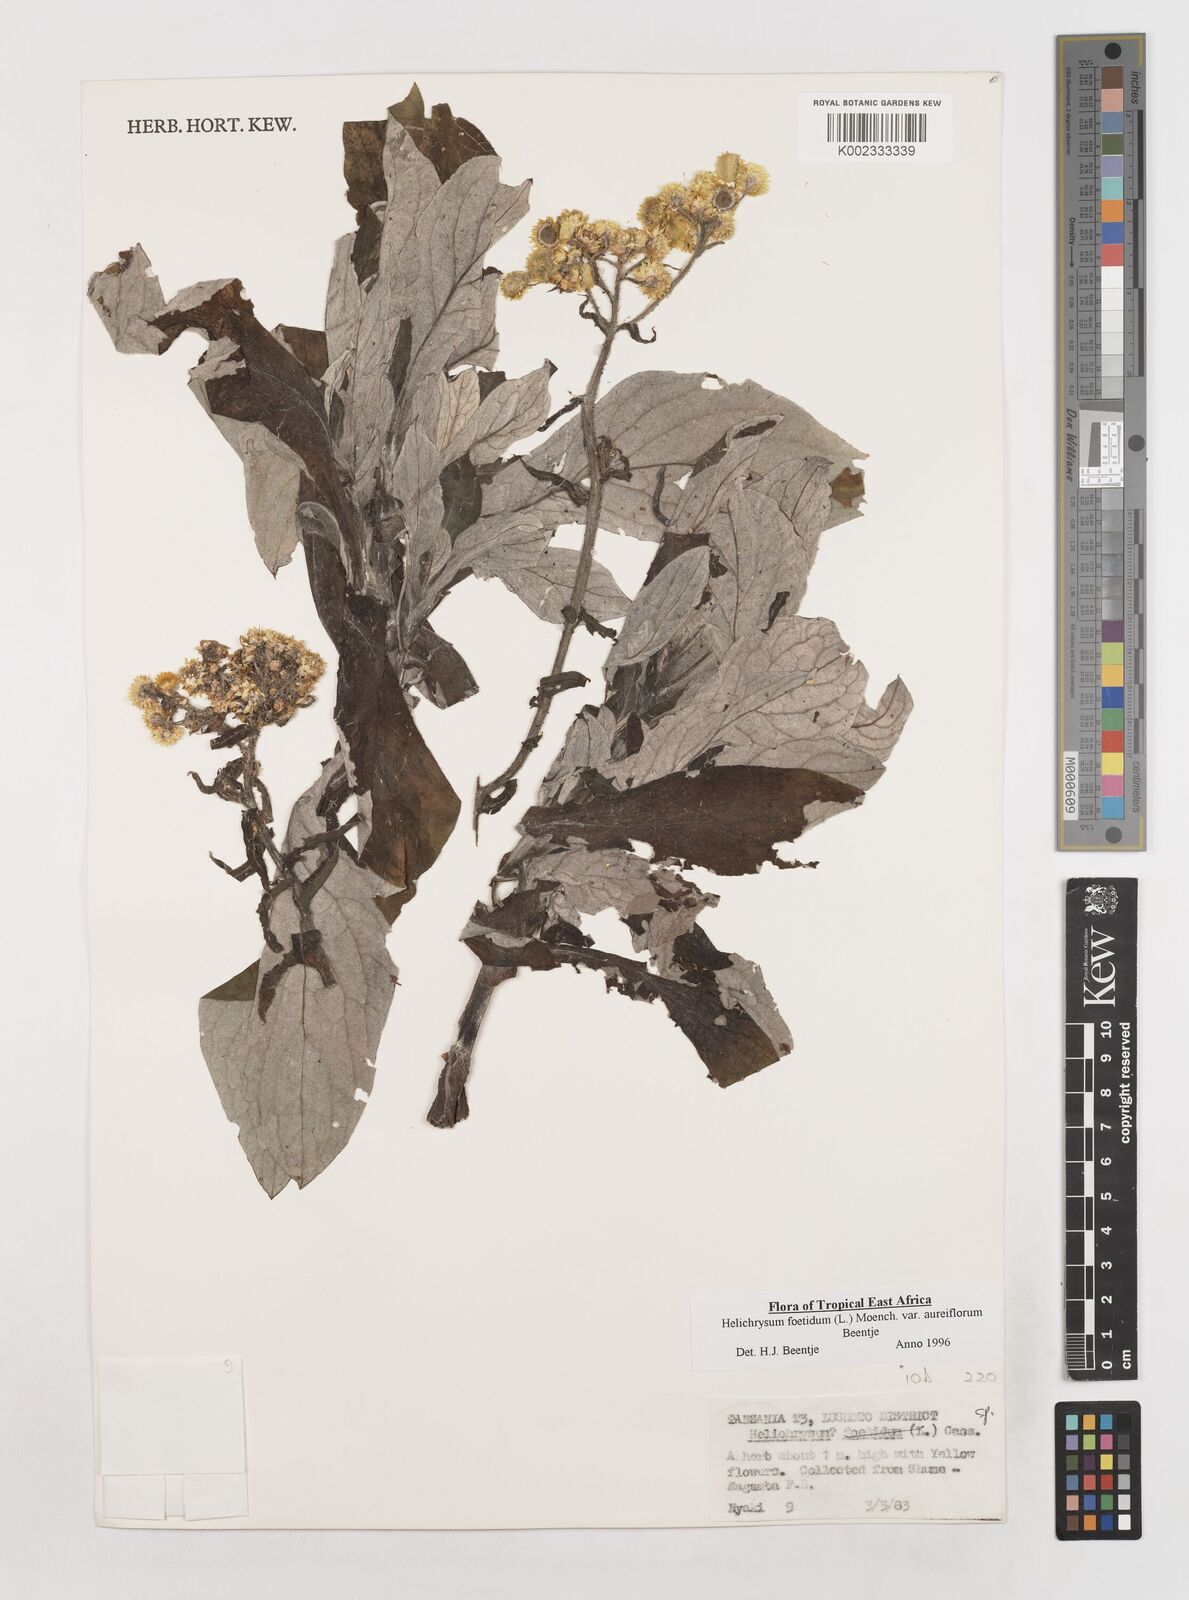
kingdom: Plantae
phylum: Tracheophyta
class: Magnoliopsida
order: Asterales
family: Asteraceae
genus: Helichrysum
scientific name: Helichrysum foetidum
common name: Stinking everlasting
